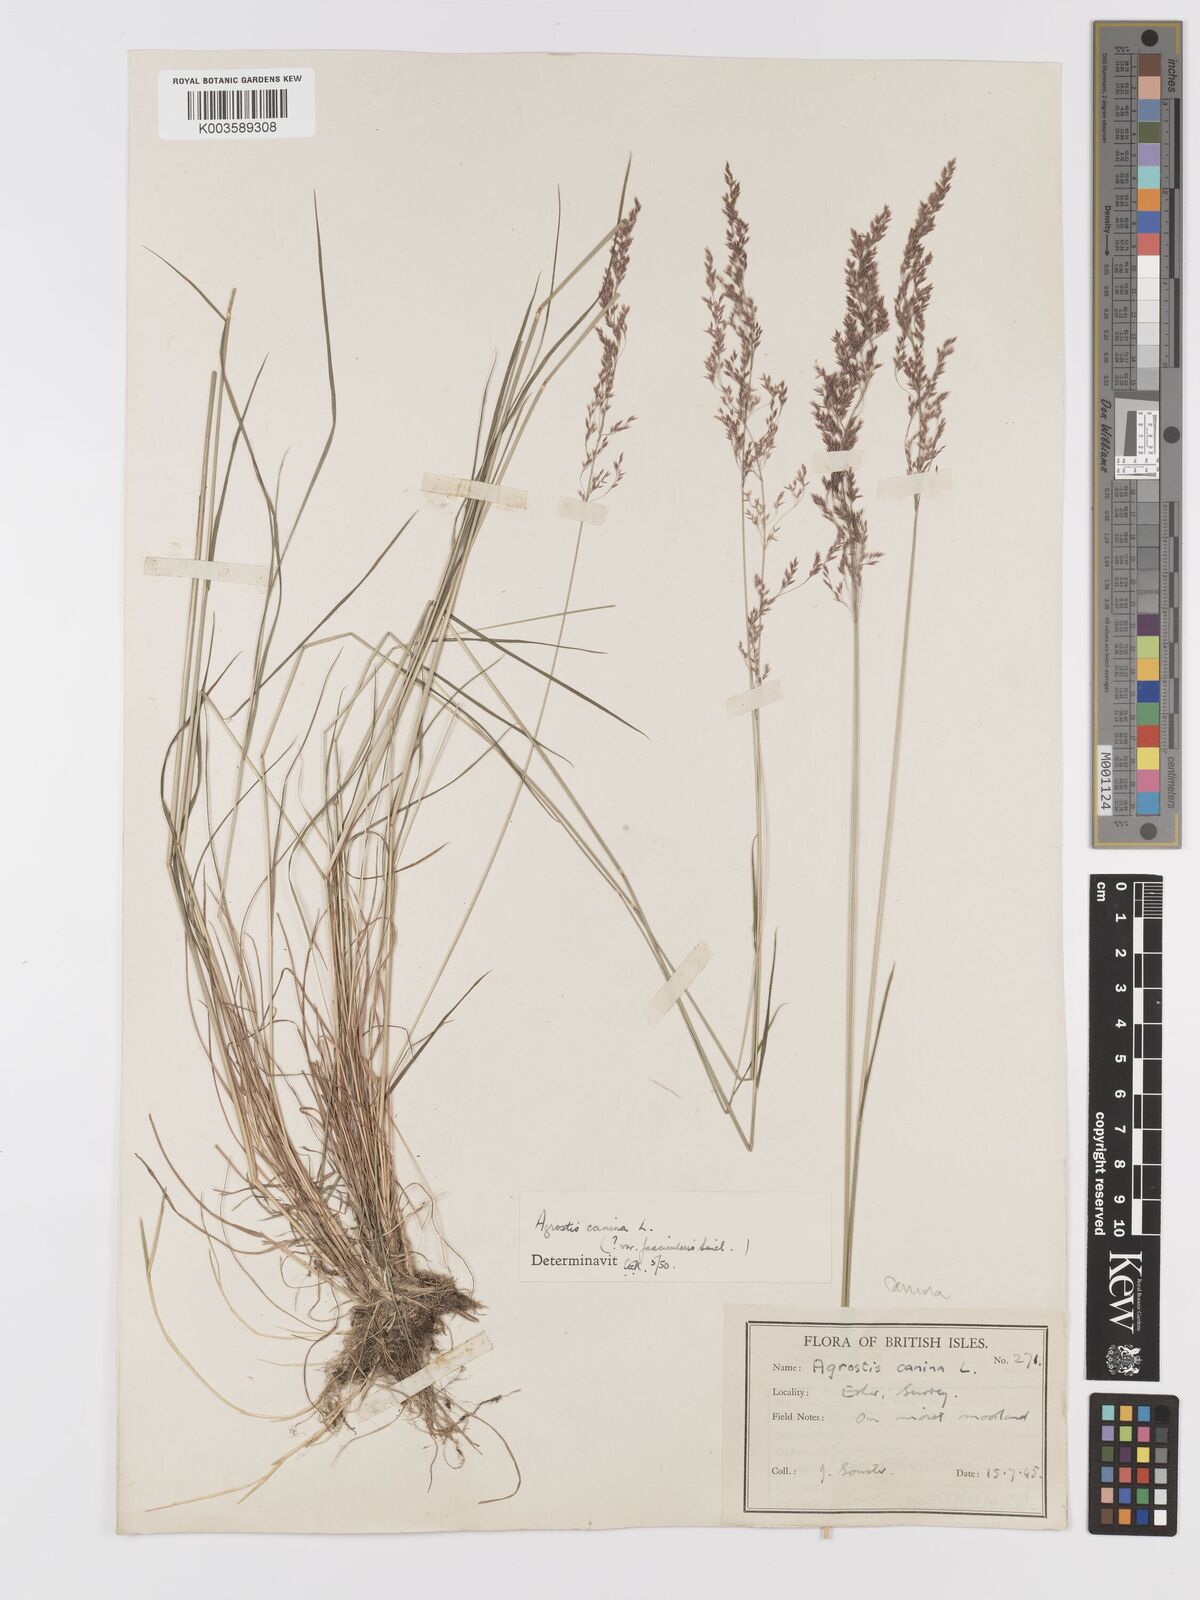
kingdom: Plantae
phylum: Tracheophyta
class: Liliopsida
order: Poales
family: Poaceae
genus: Agrostis
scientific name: Agrostis canina
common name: Velvet bent
